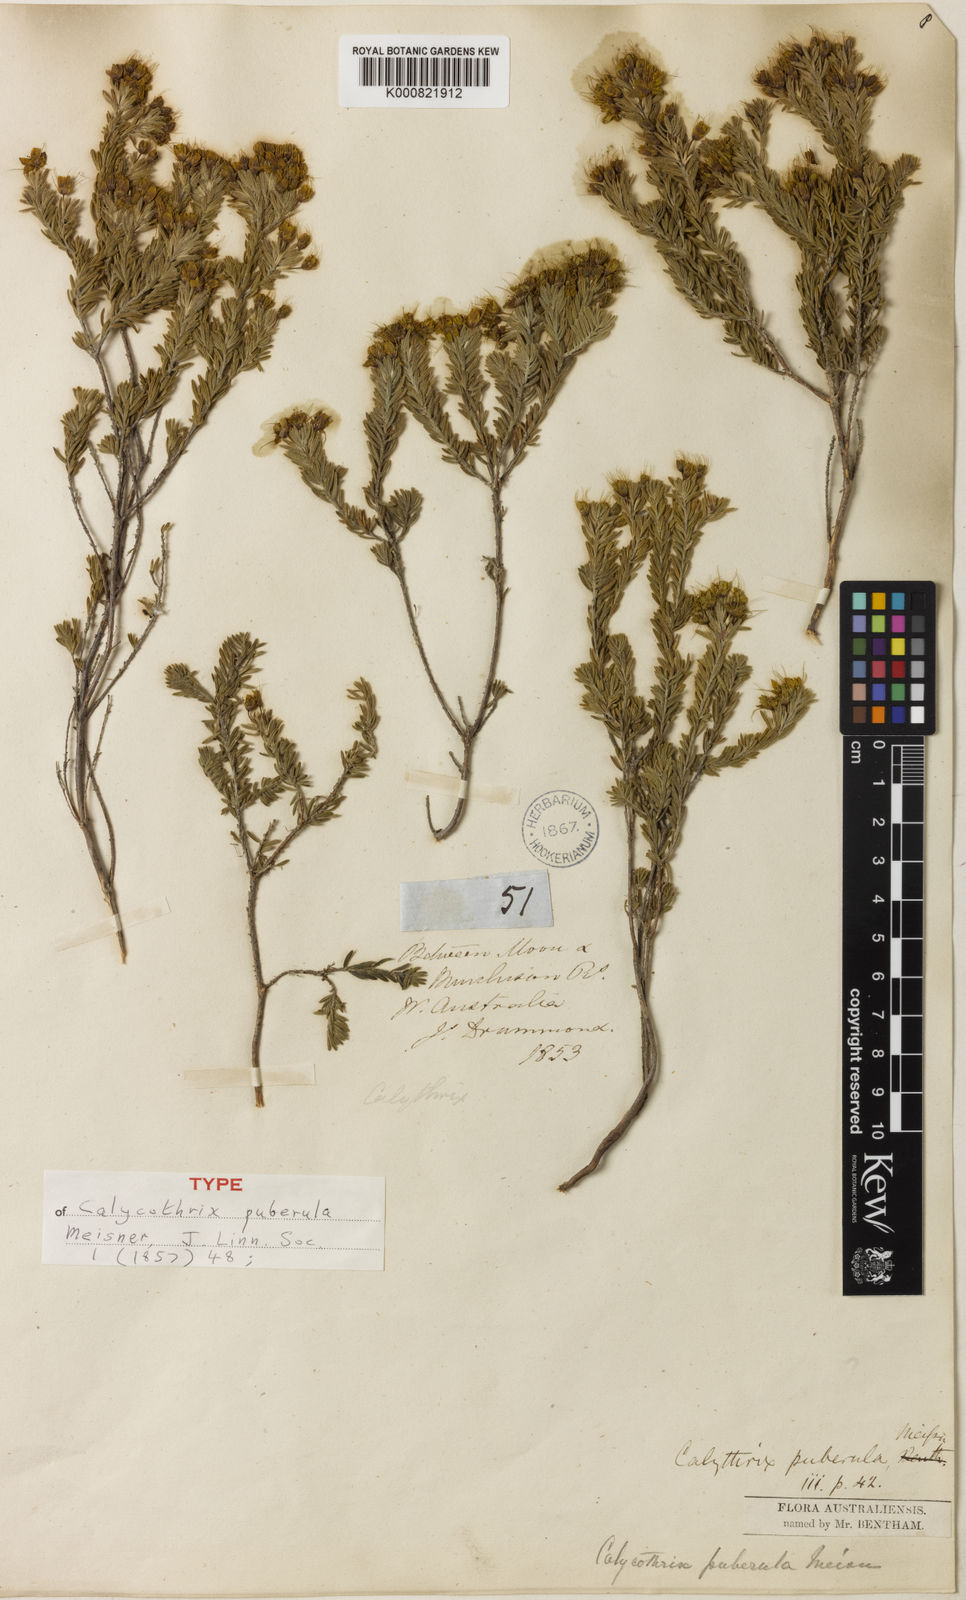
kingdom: Plantae
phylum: Tracheophyta
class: Magnoliopsida
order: Myrtales
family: Myrtaceae
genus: Calytrix
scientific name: Calytrix flavescens
